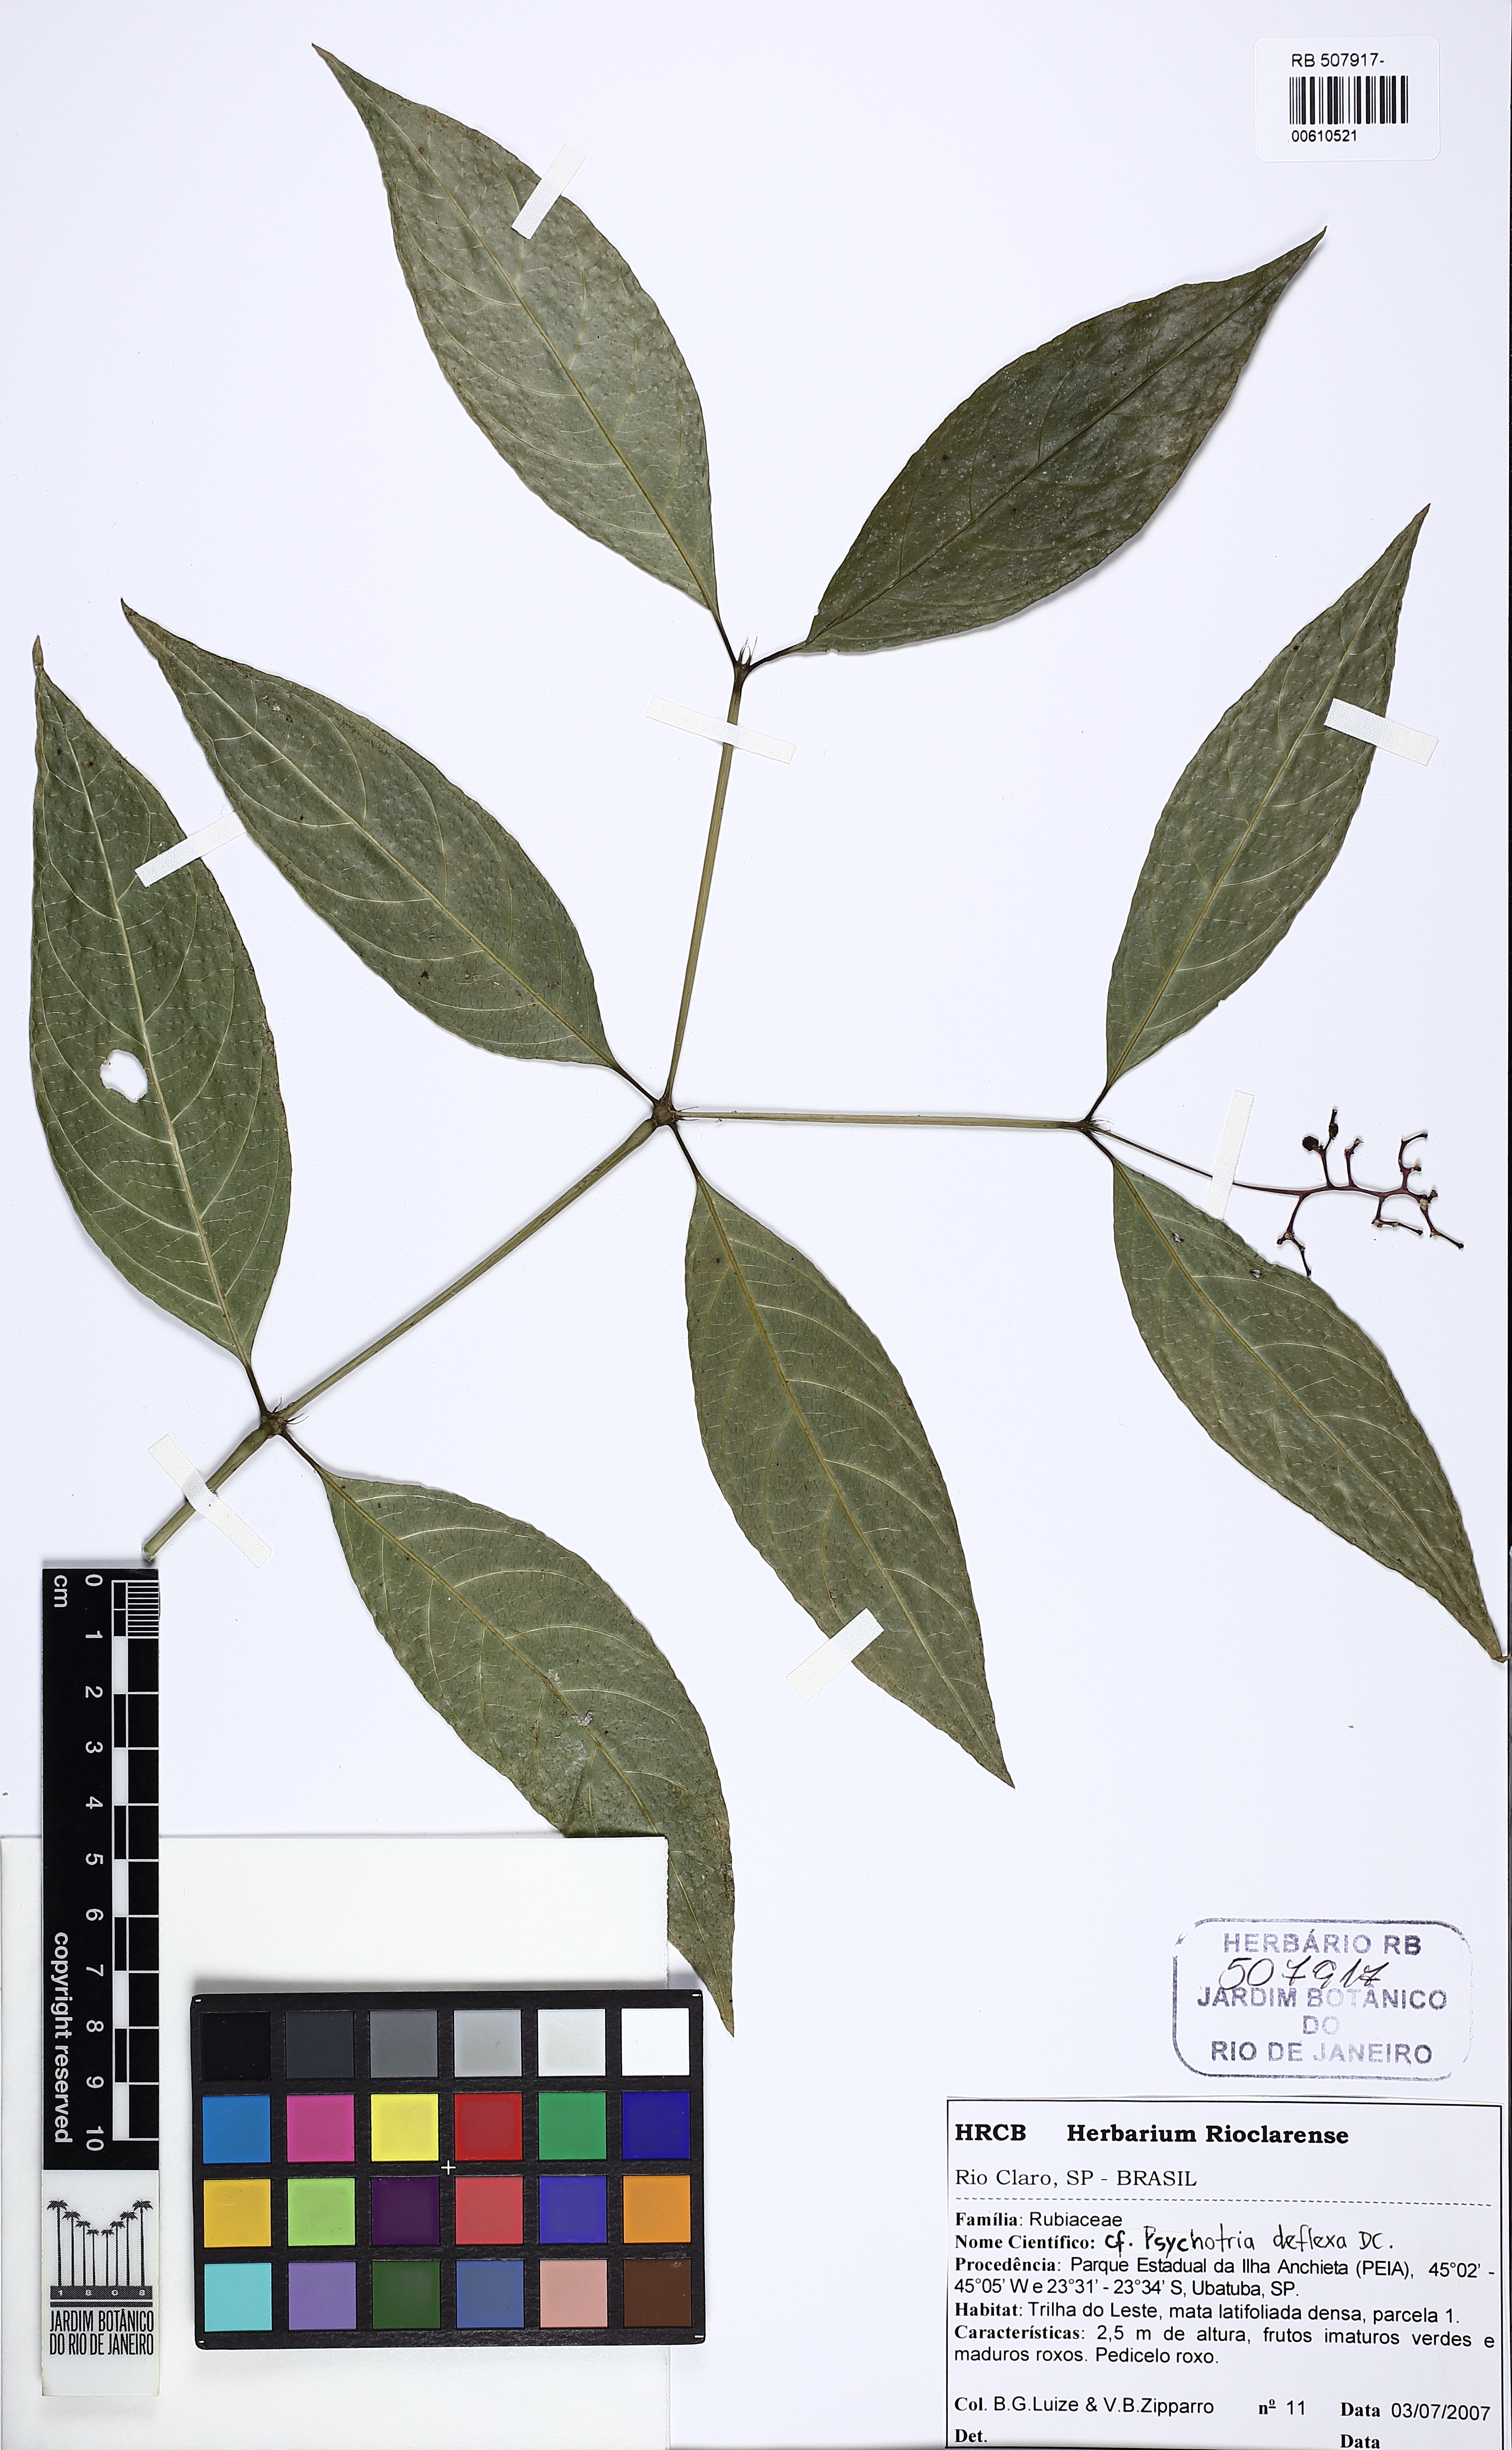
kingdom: Plantae
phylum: Tracheophyta
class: Magnoliopsida
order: Gentianales
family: Rubiaceae
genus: Palicourea
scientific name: Palicourea deflexa
